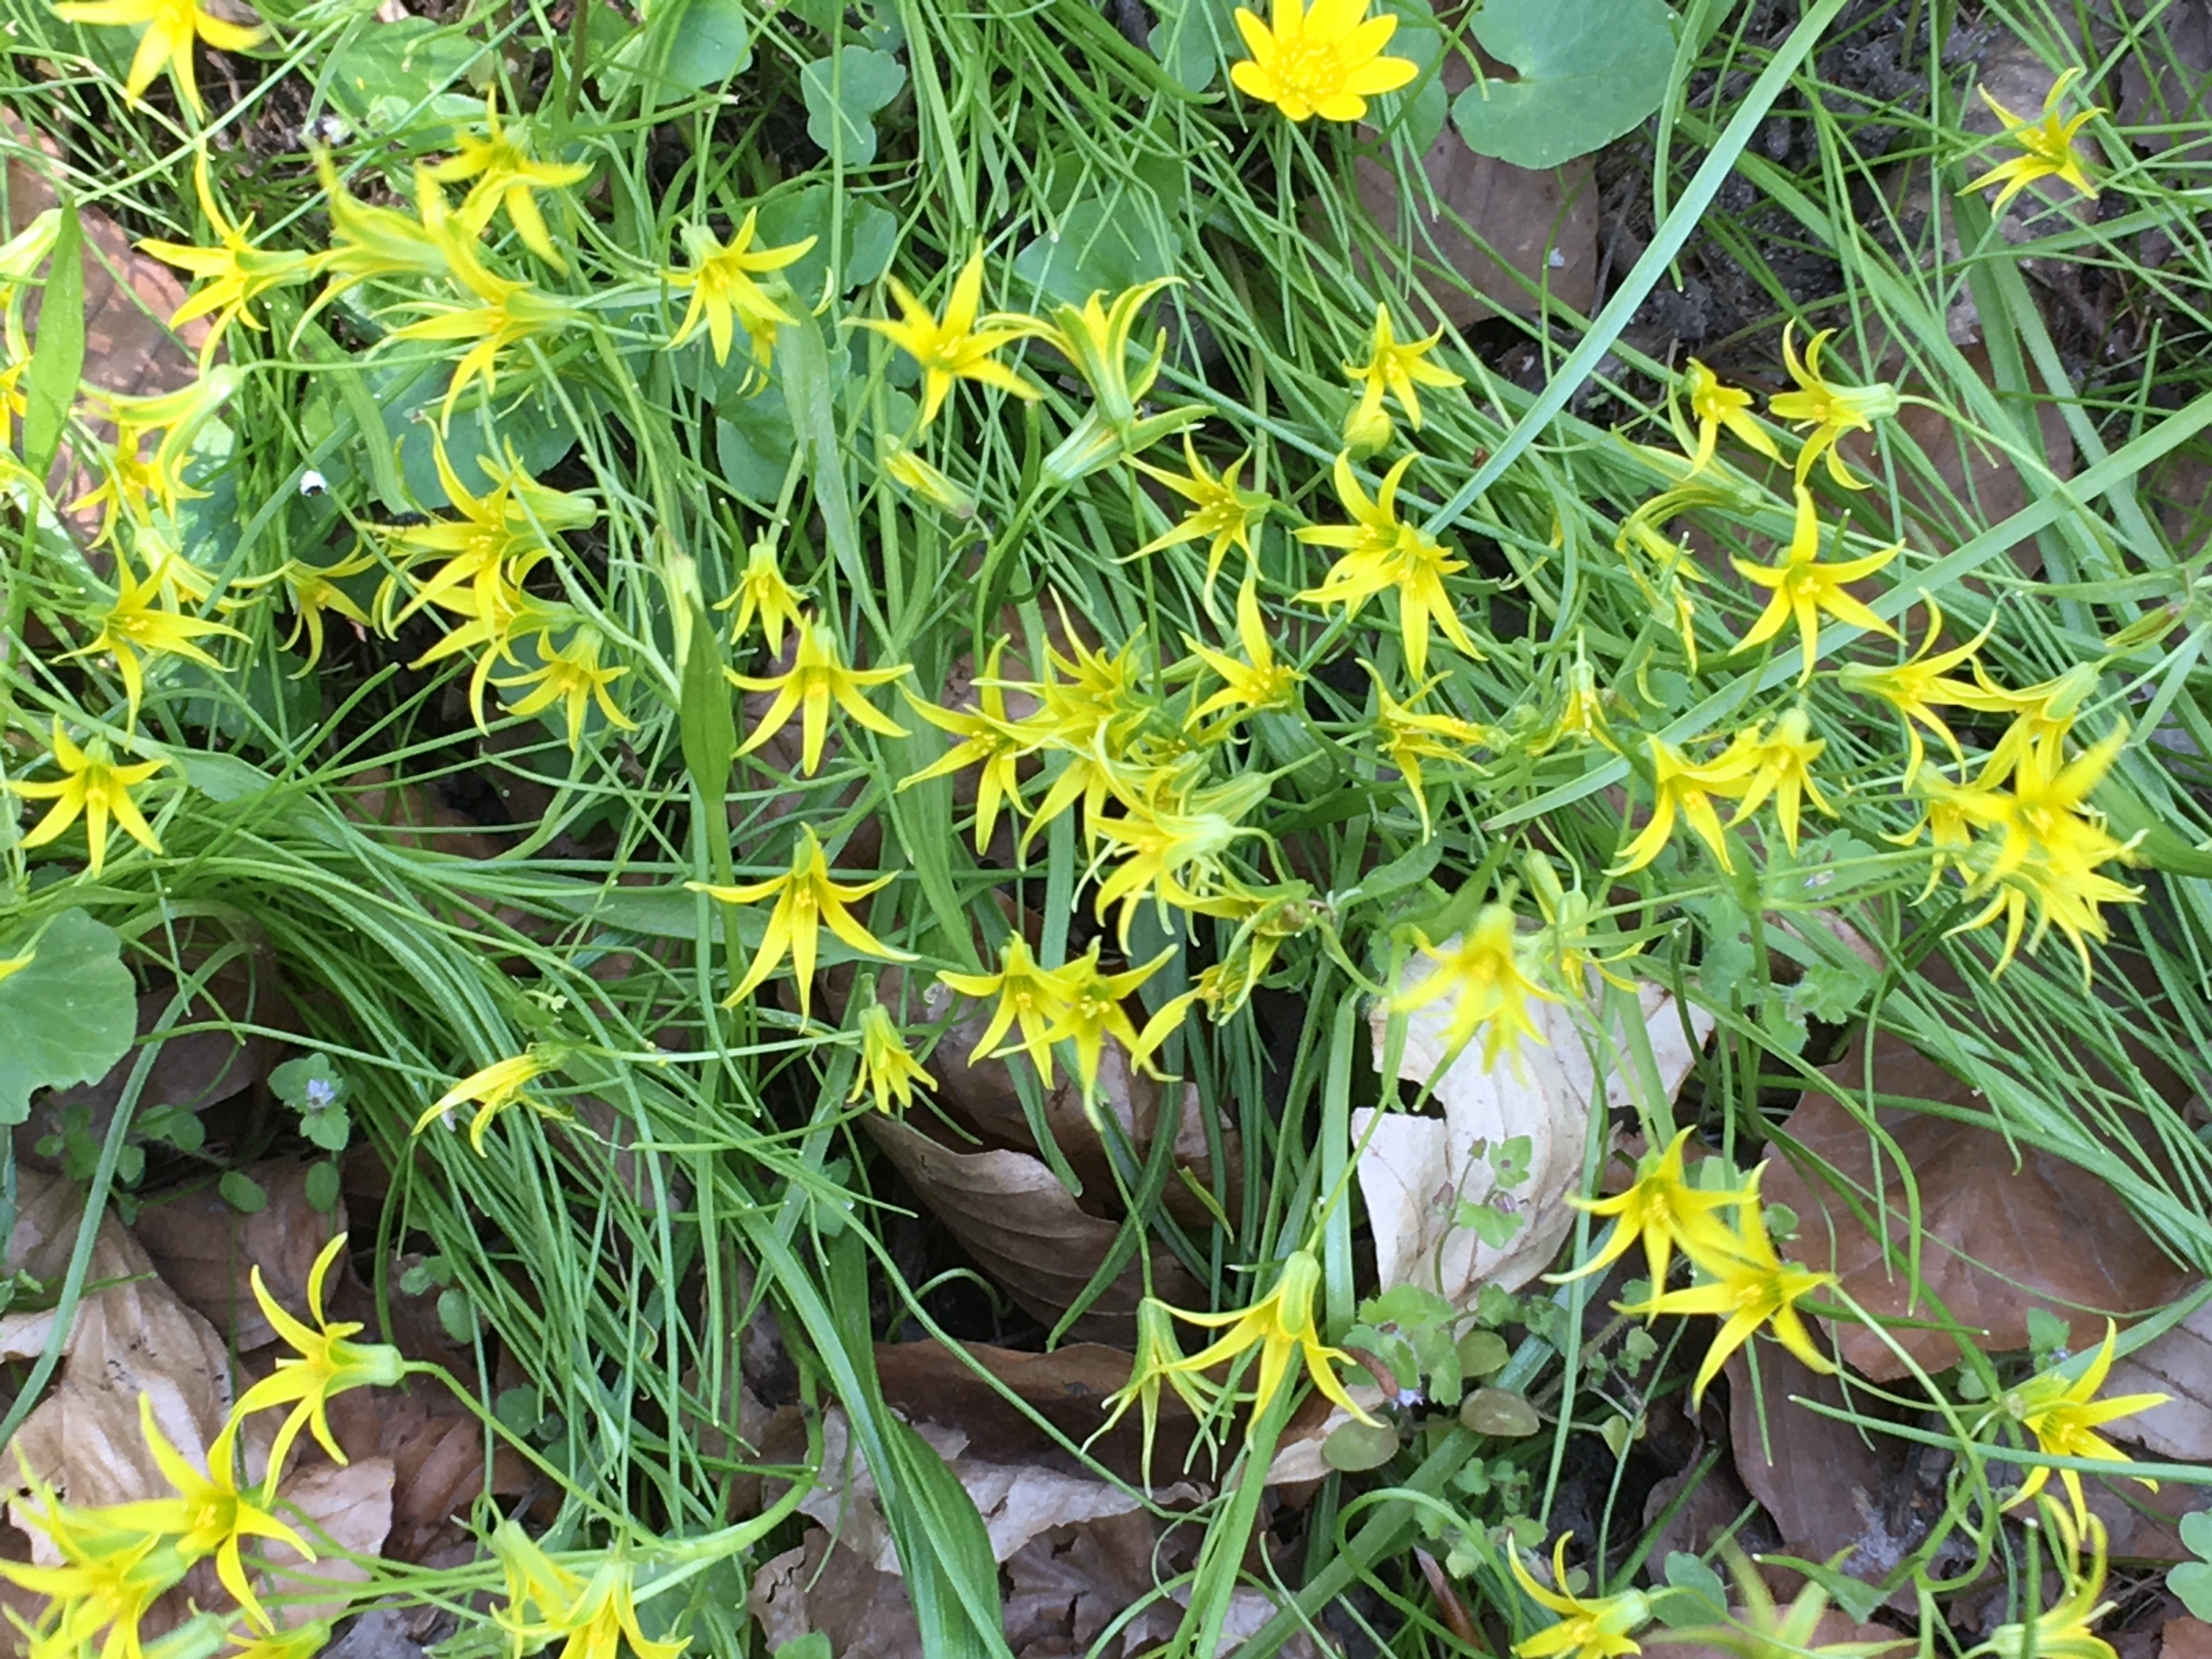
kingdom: Plantae
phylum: Tracheophyta
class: Liliopsida
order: Liliales
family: Liliaceae
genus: Gagea
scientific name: Gagea minima
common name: Liden guldstjerne
